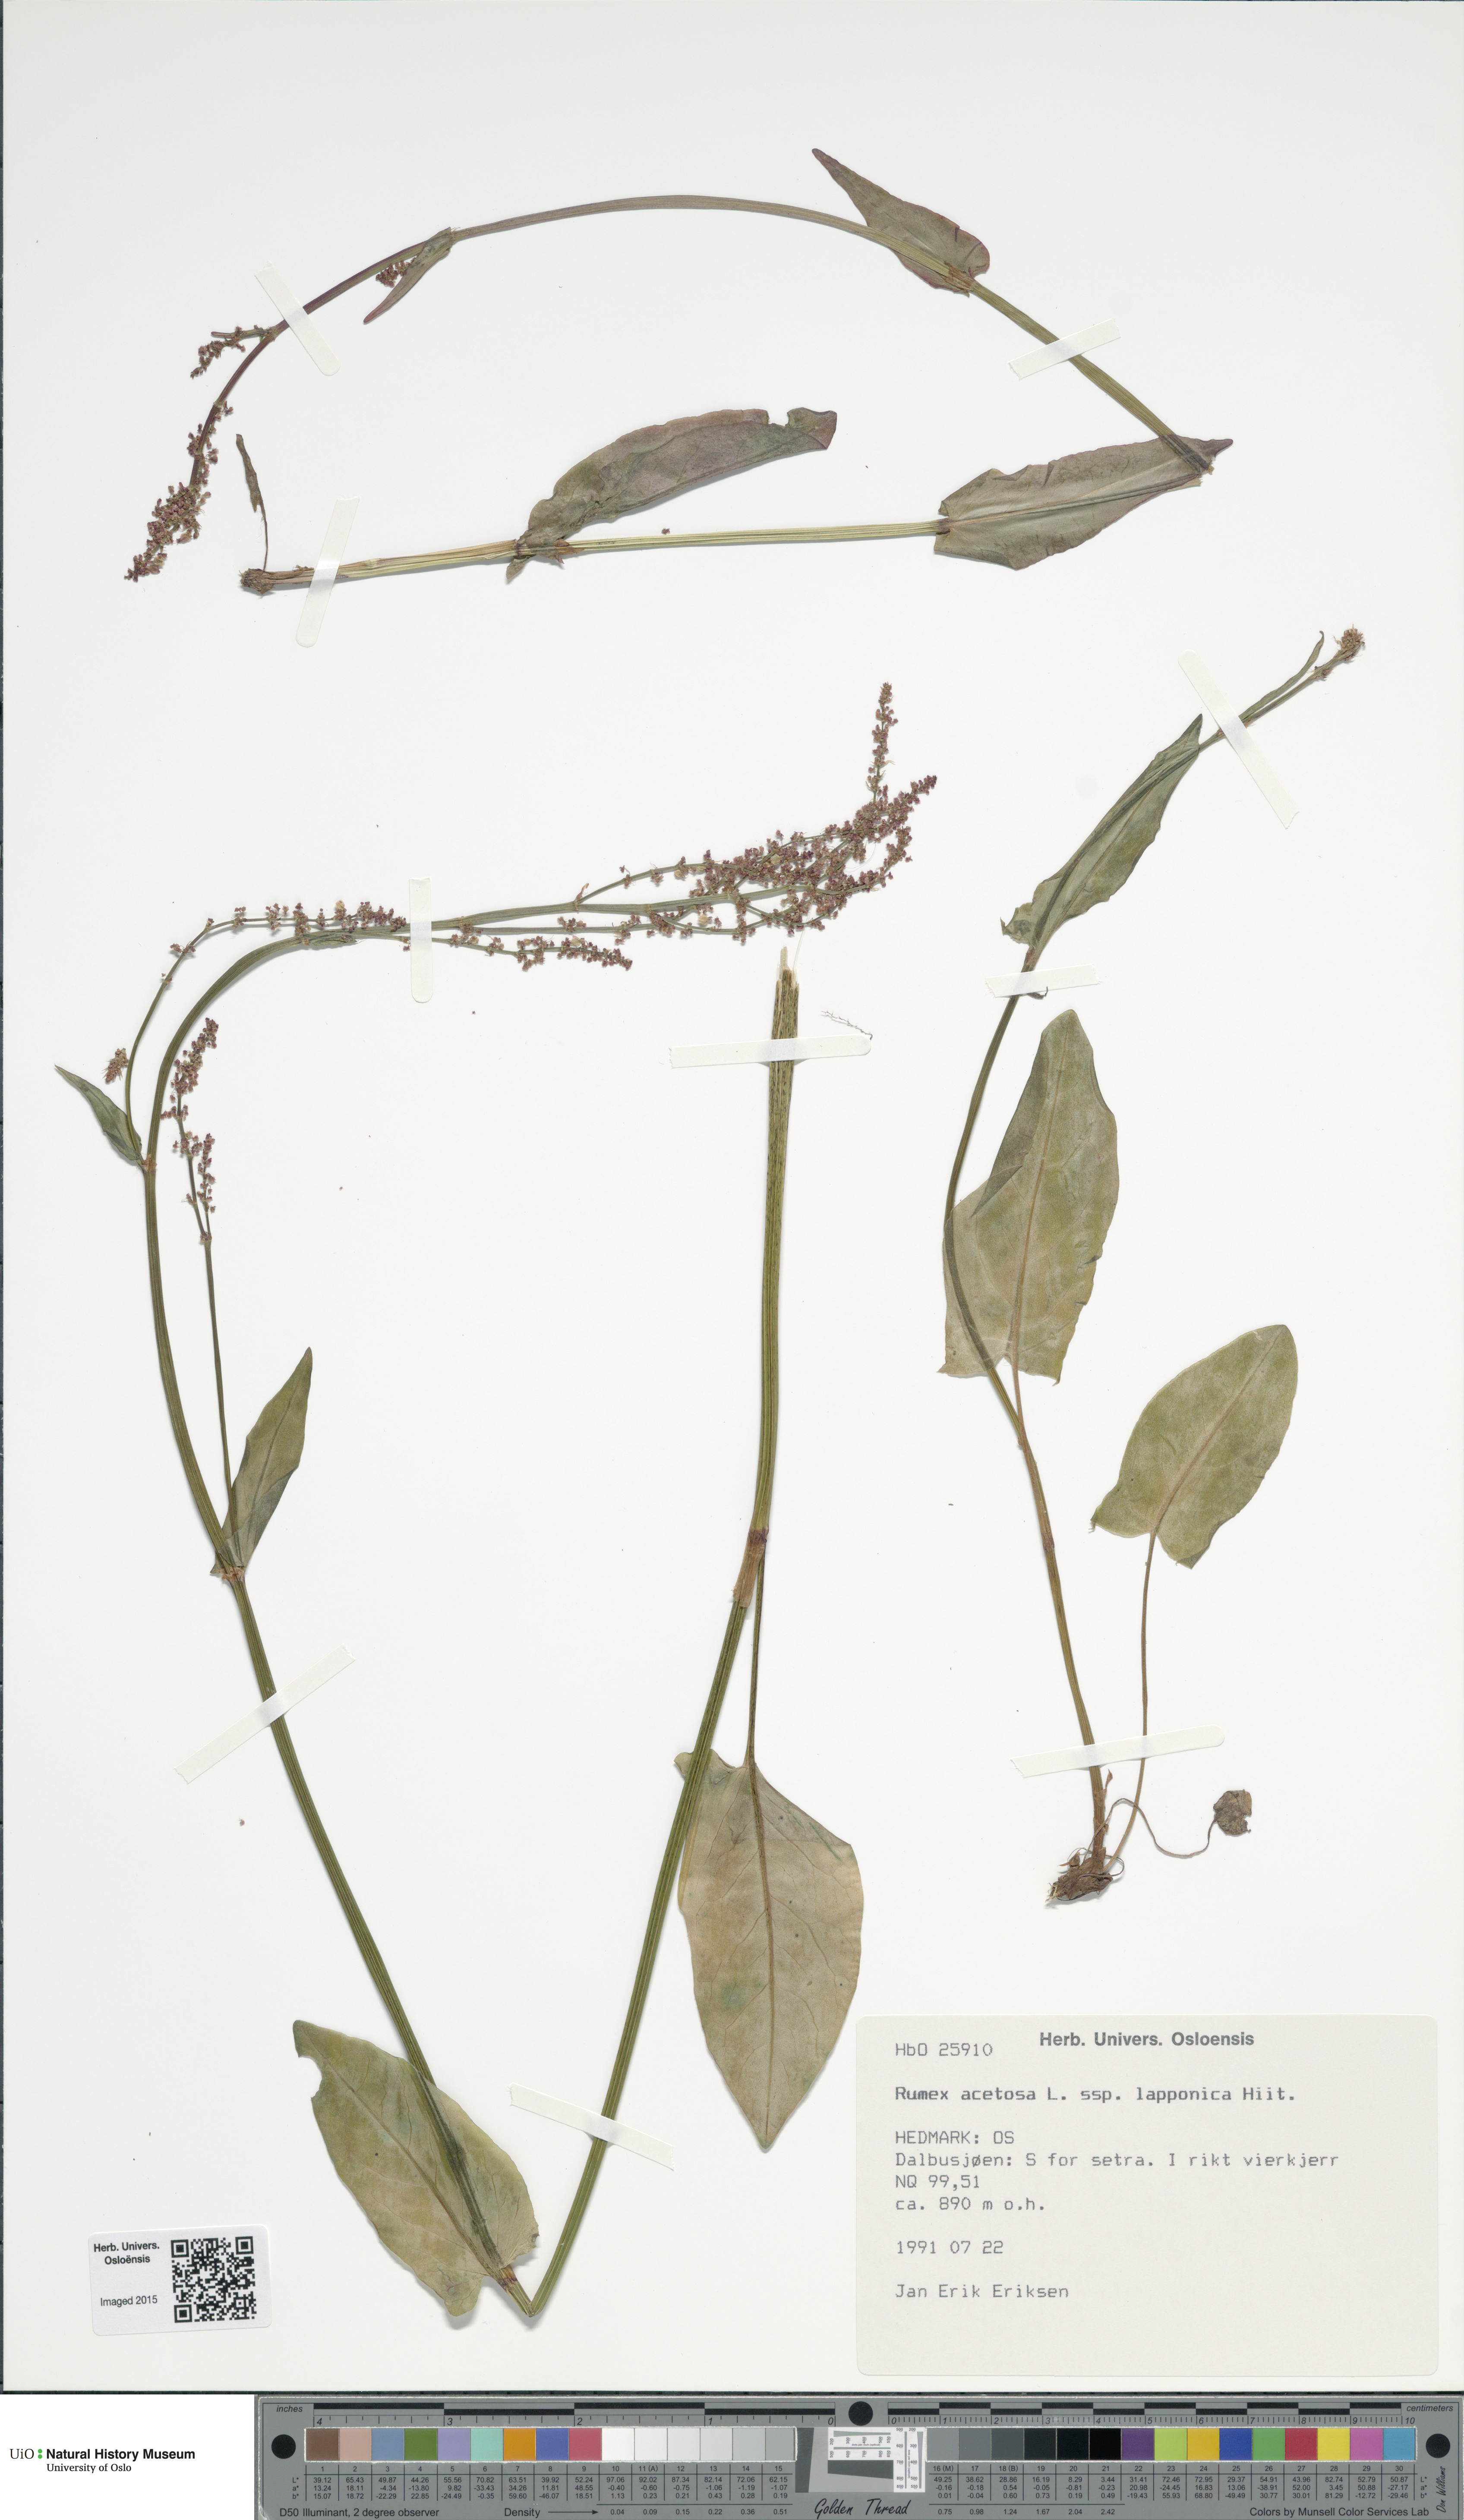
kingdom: Plantae
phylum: Tracheophyta
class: Magnoliopsida
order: Caryophyllales
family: Polygonaceae
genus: Rumex
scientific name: Rumex lapponicus
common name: Lapland mountain sorrel
